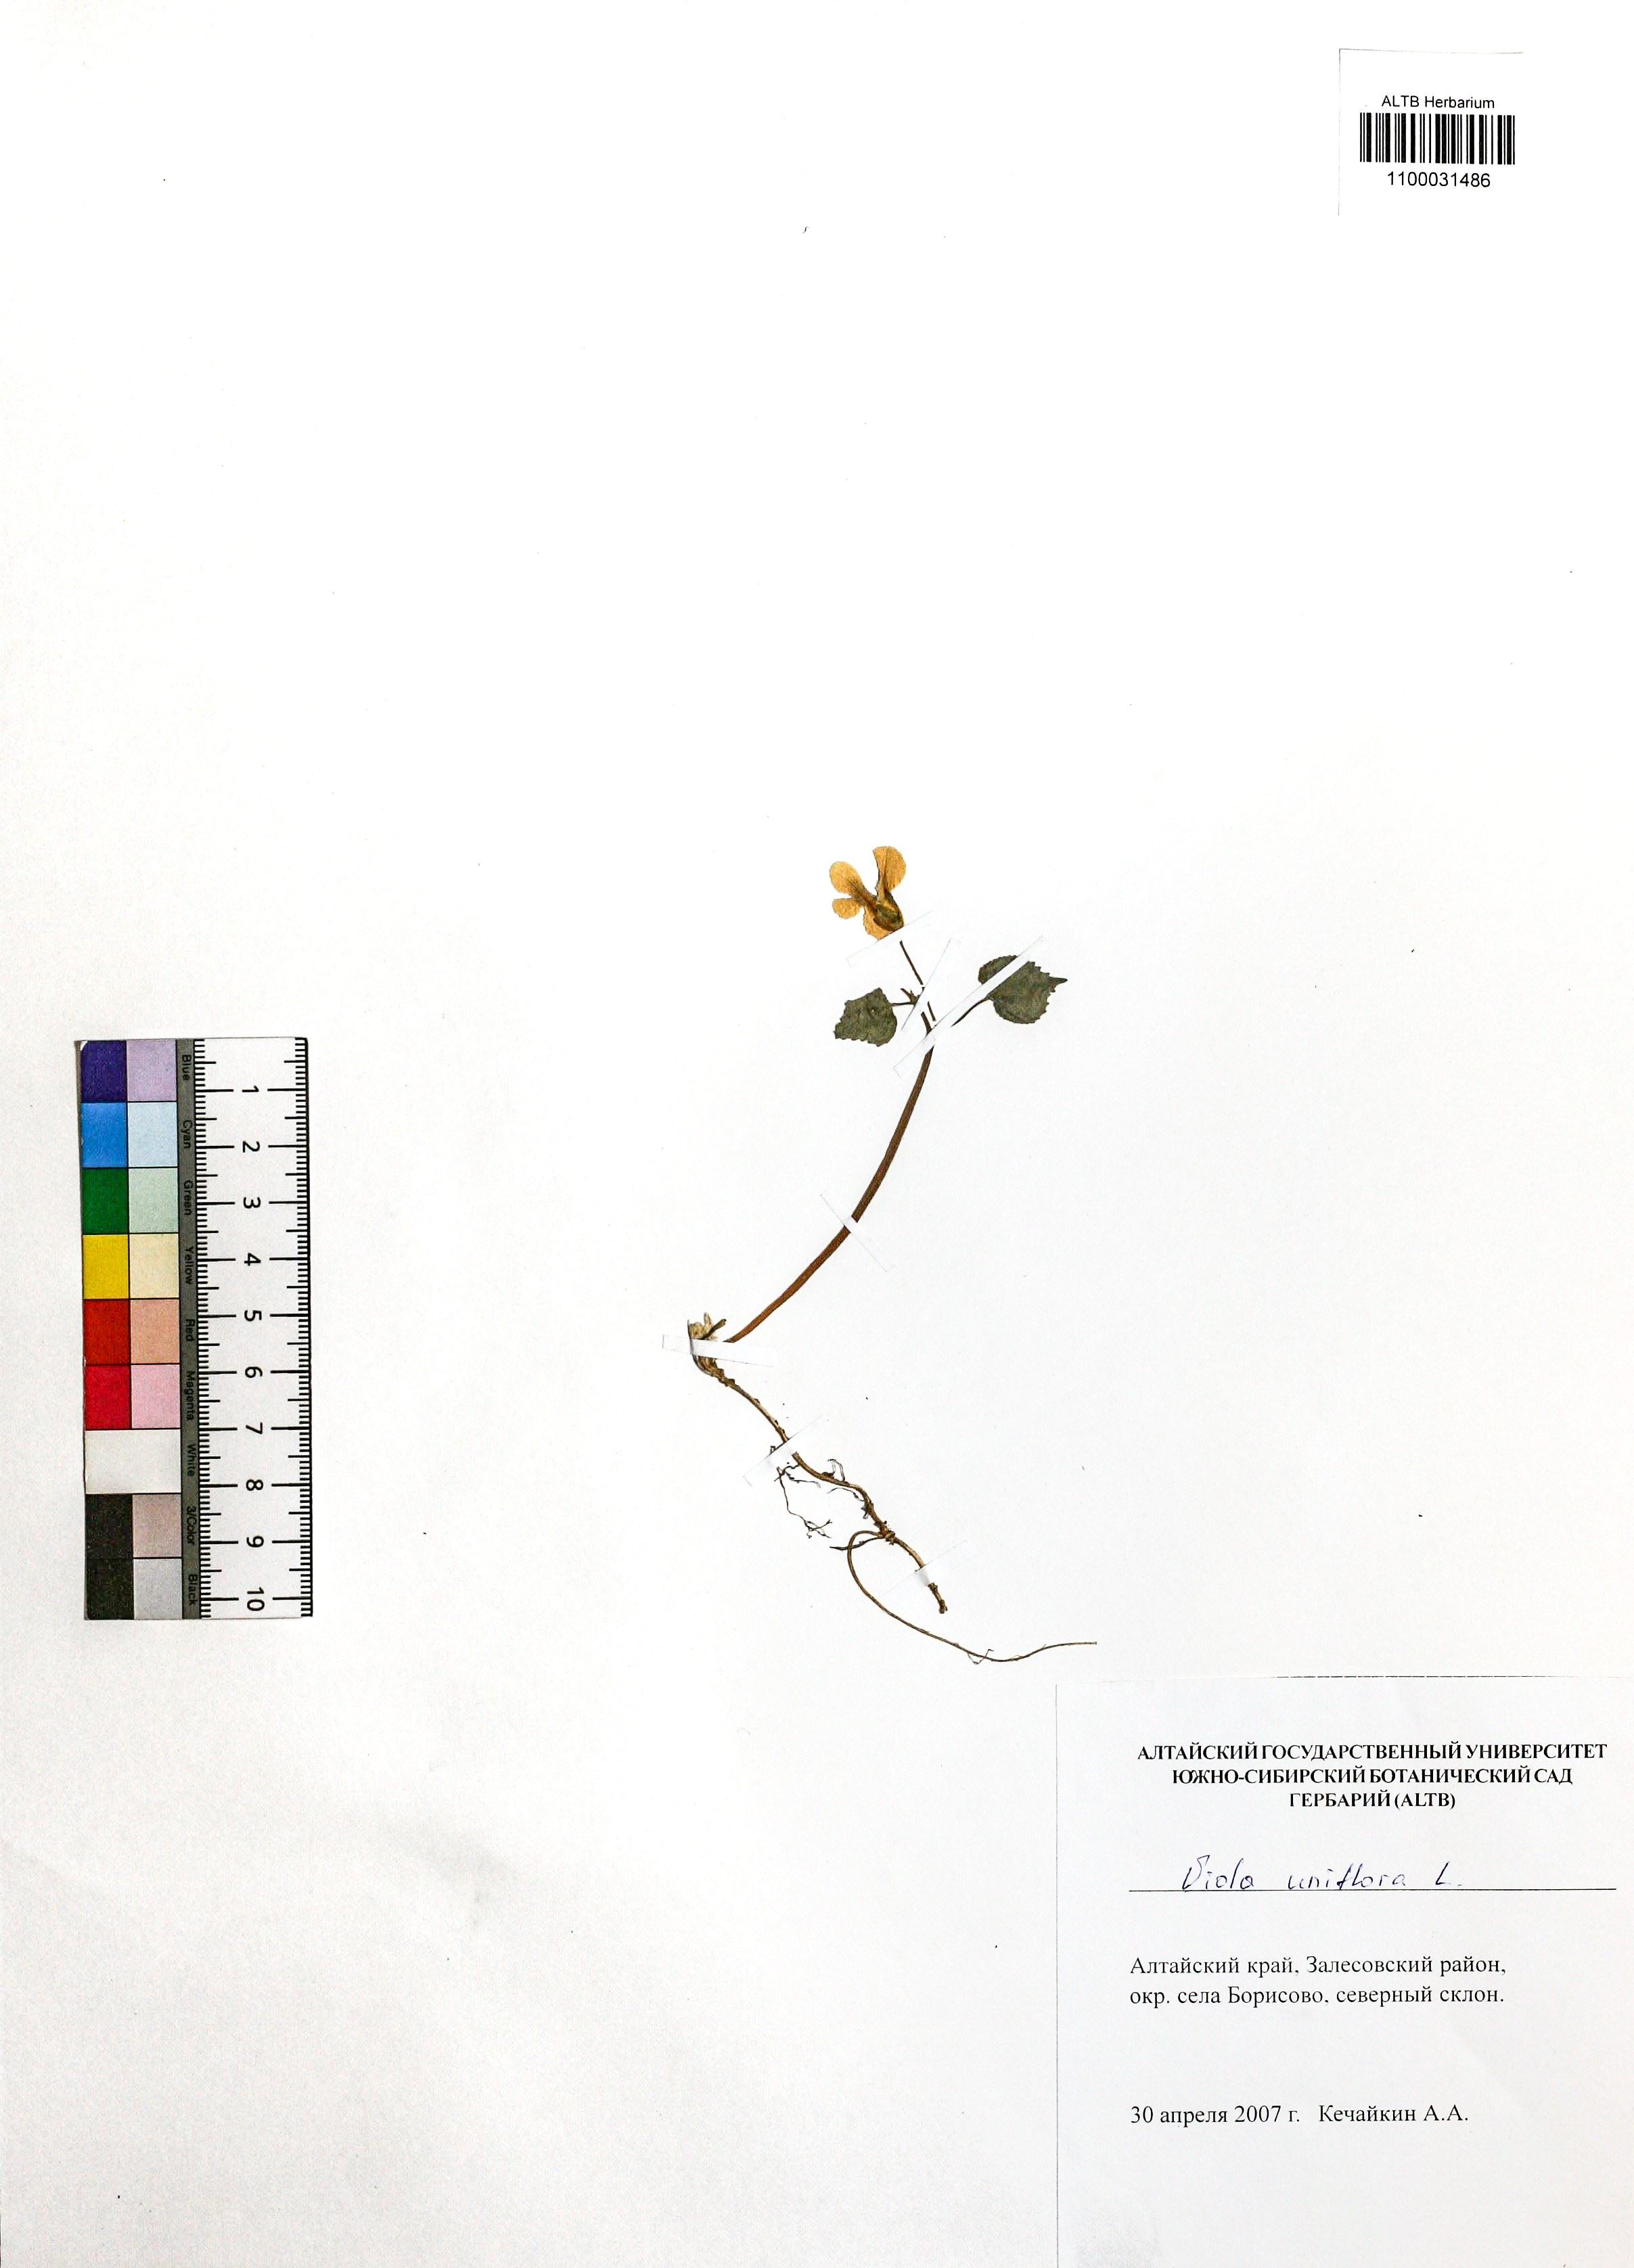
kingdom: Plantae
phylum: Tracheophyta
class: Magnoliopsida
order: Malpighiales
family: Violaceae
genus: Viola
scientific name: Viola uniflora
